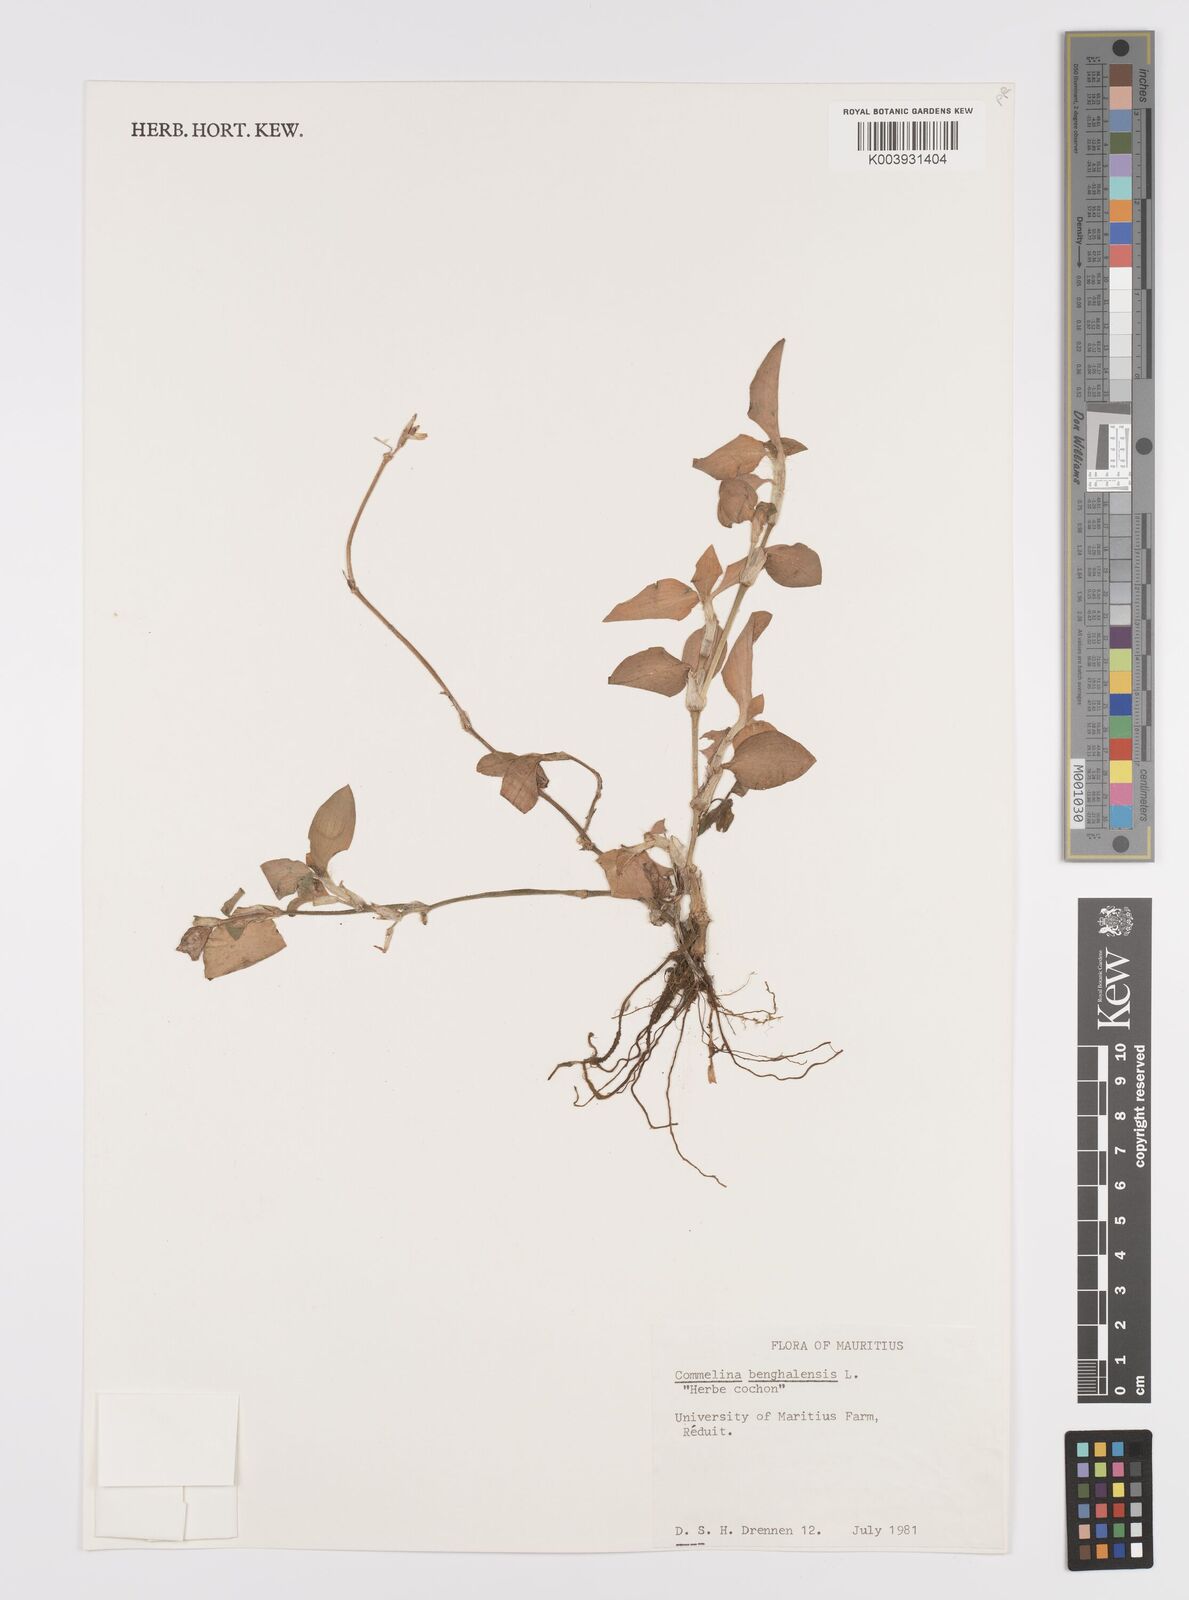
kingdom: Plantae
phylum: Tracheophyta
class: Liliopsida
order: Commelinales
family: Commelinaceae
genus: Commelina
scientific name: Commelina benghalensis
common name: Jio
